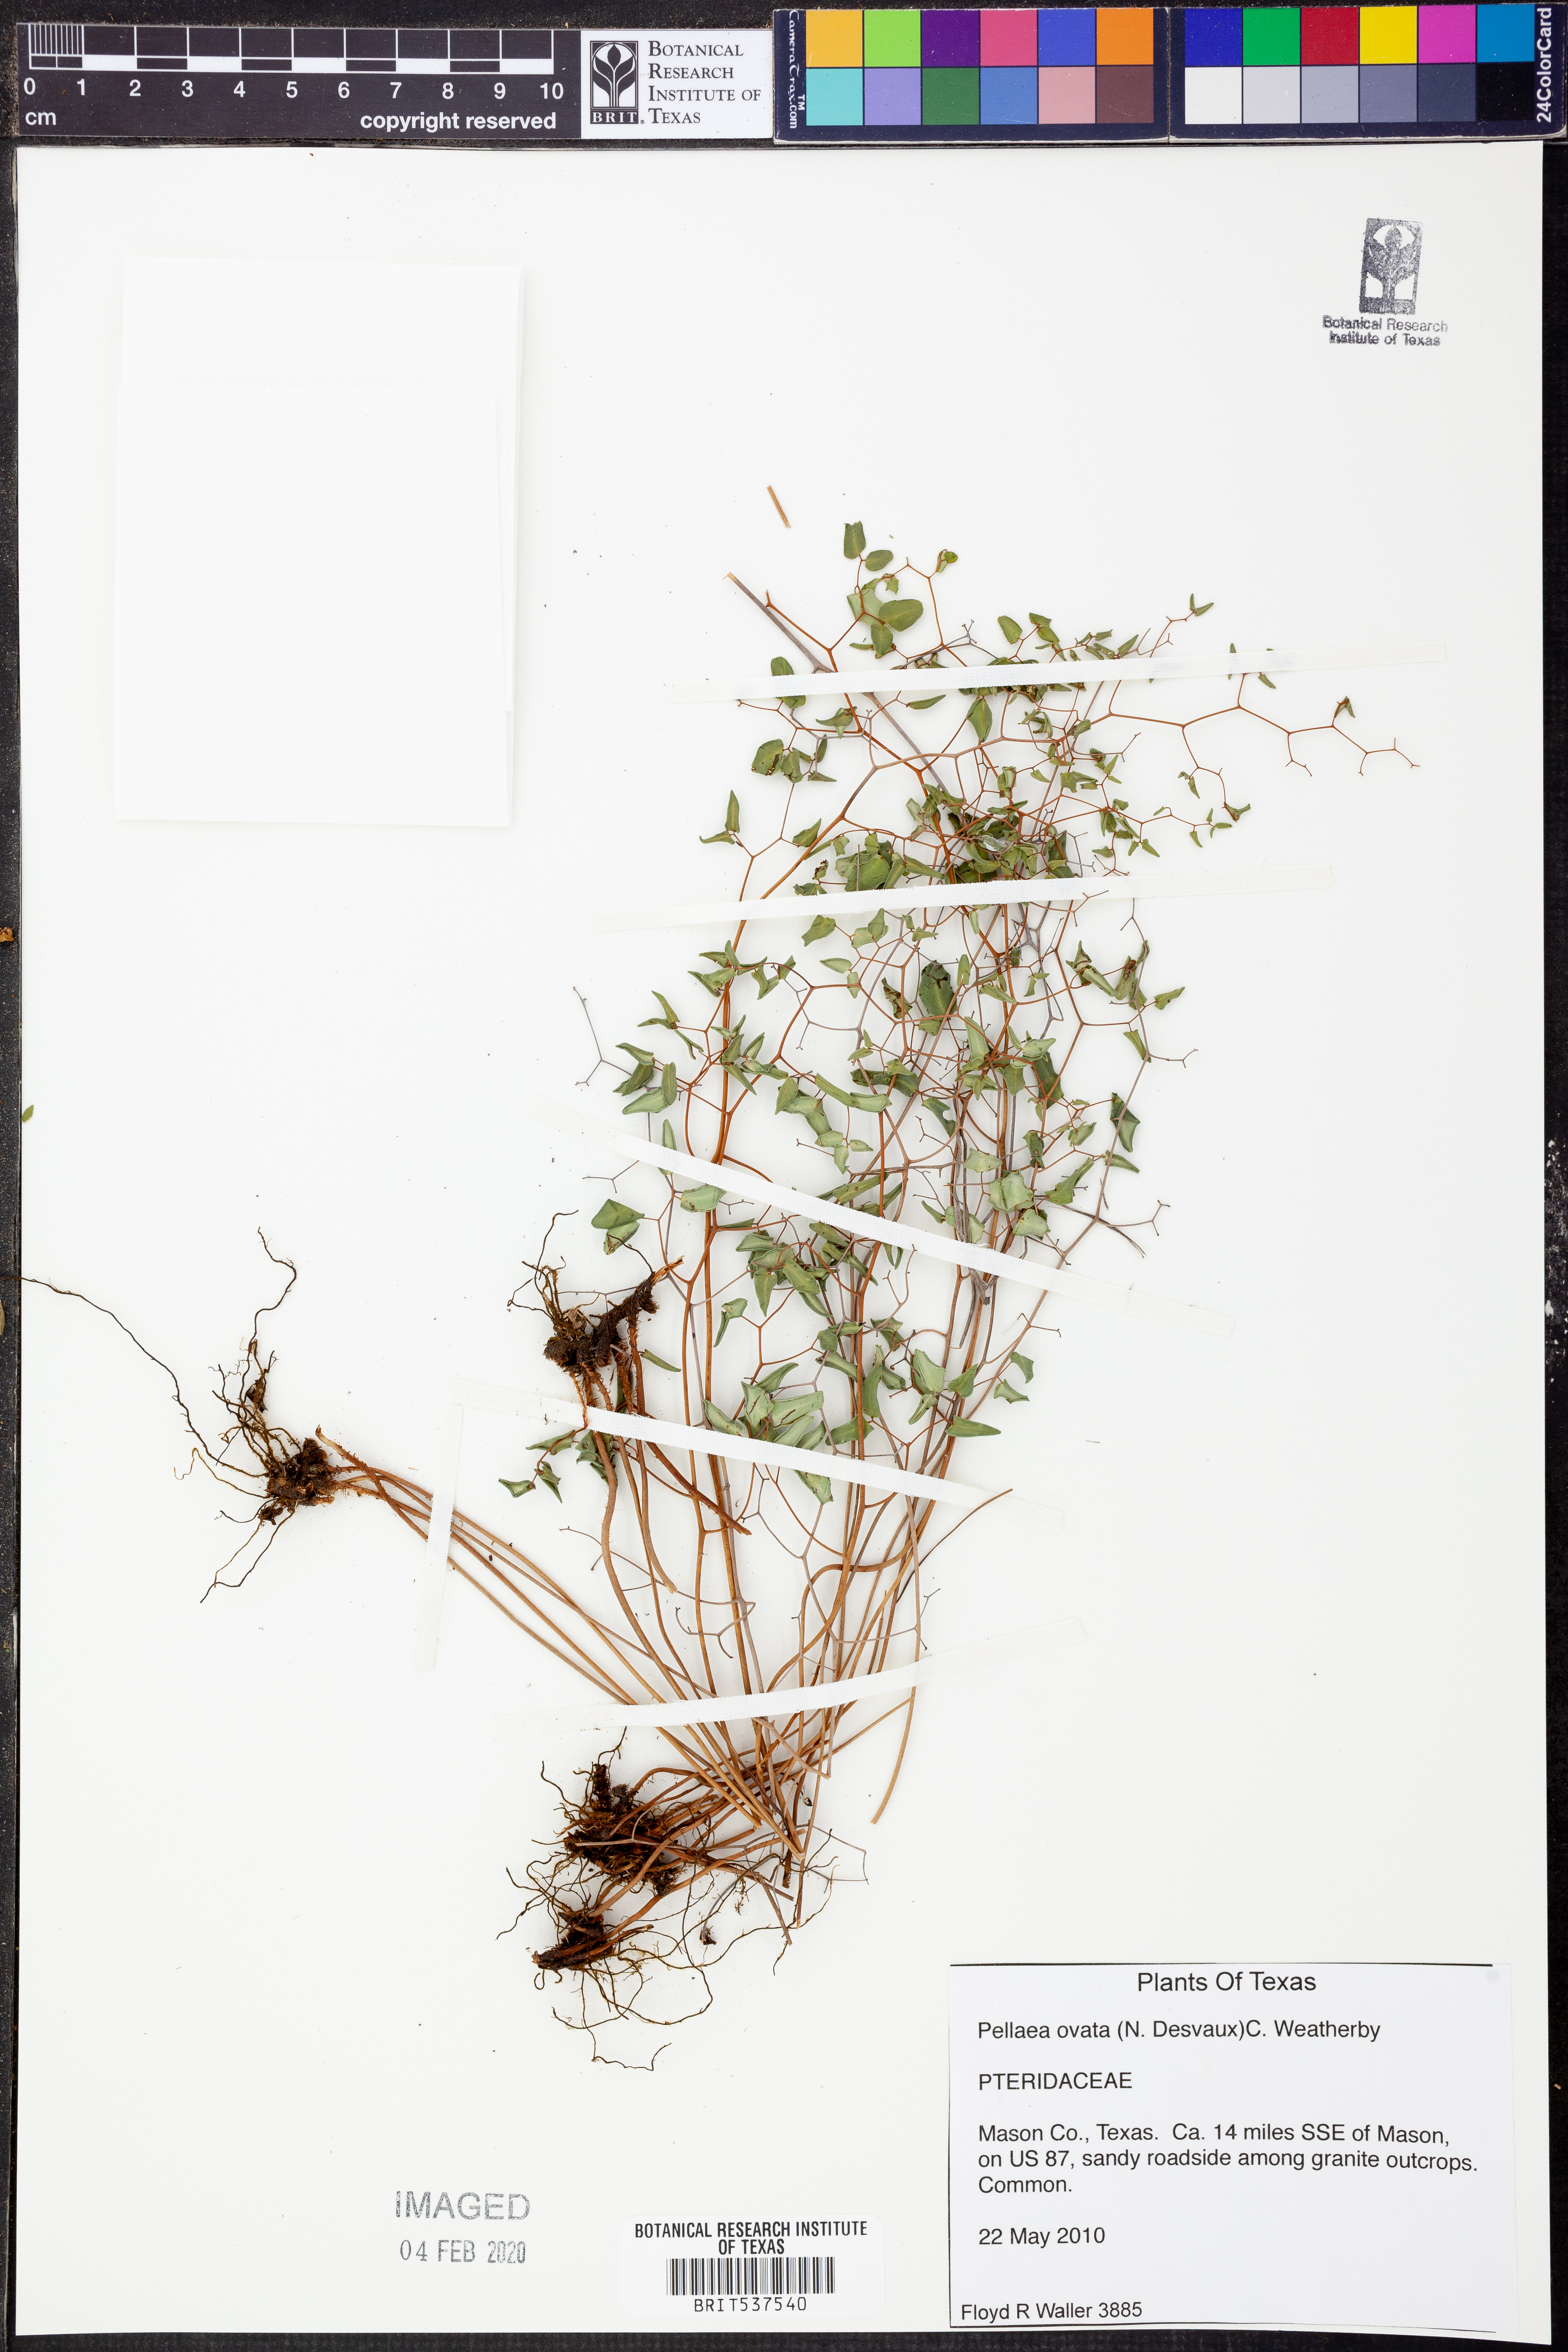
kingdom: Plantae
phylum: Tracheophyta
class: Polypodiopsida
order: Polypodiales
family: Pteridaceae
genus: Pellaea
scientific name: Pellaea ovata
